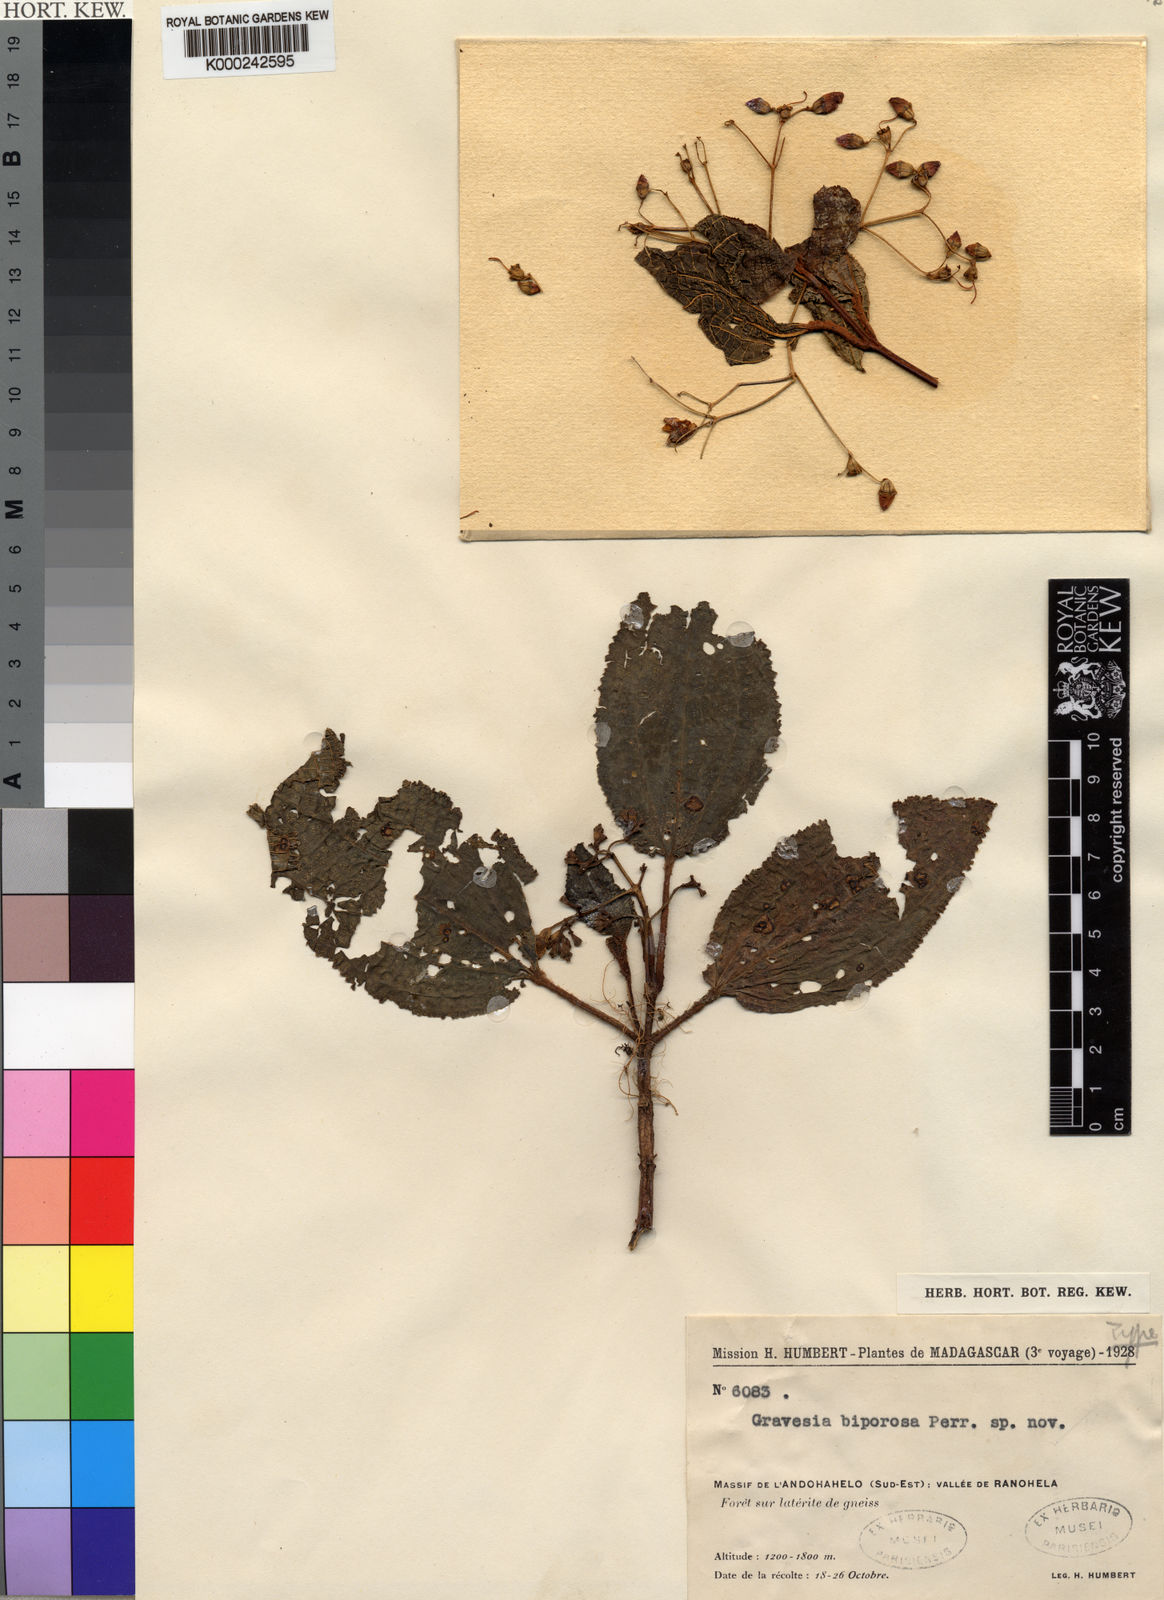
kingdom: Plantae
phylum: Tracheophyta
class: Magnoliopsida
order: Myrtales
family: Melastomataceae
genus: Gravesia
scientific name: Gravesia biporosa
